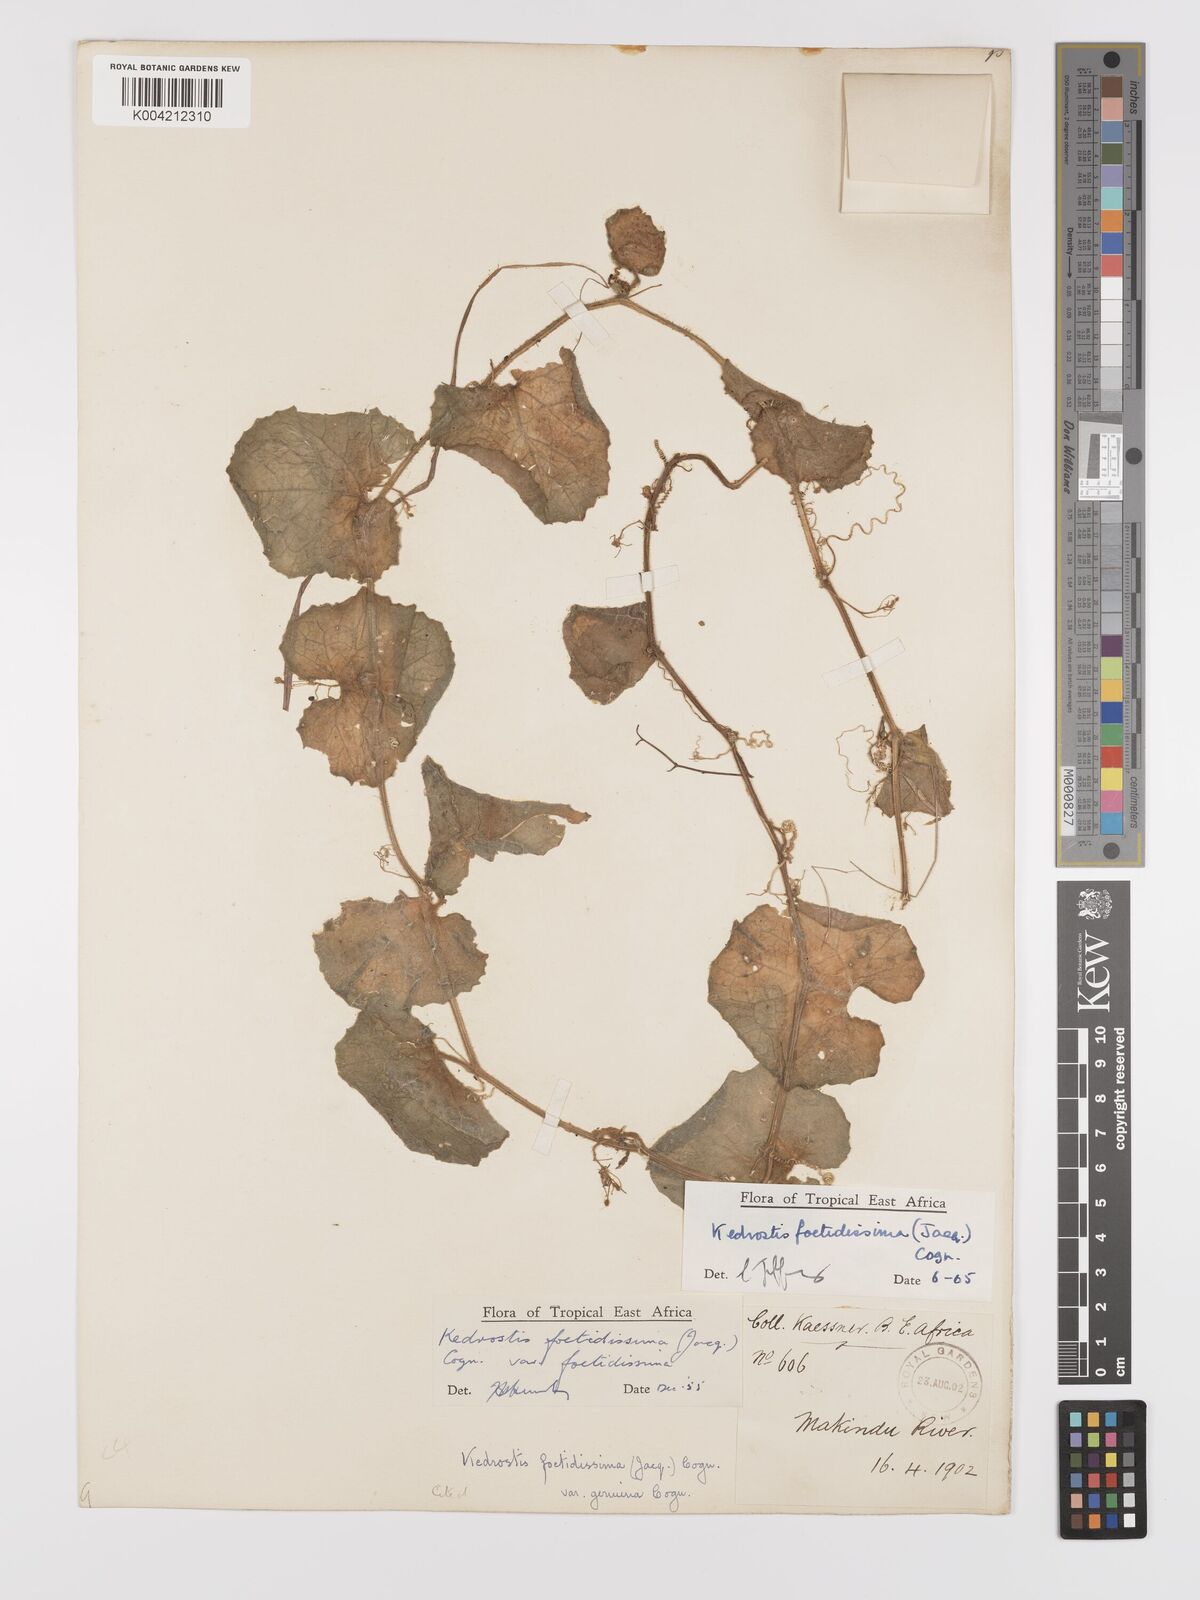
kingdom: Plantae
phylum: Tracheophyta
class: Magnoliopsida
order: Cucurbitales
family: Cucurbitaceae
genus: Kedrostis
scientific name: Kedrostis foetidissima
